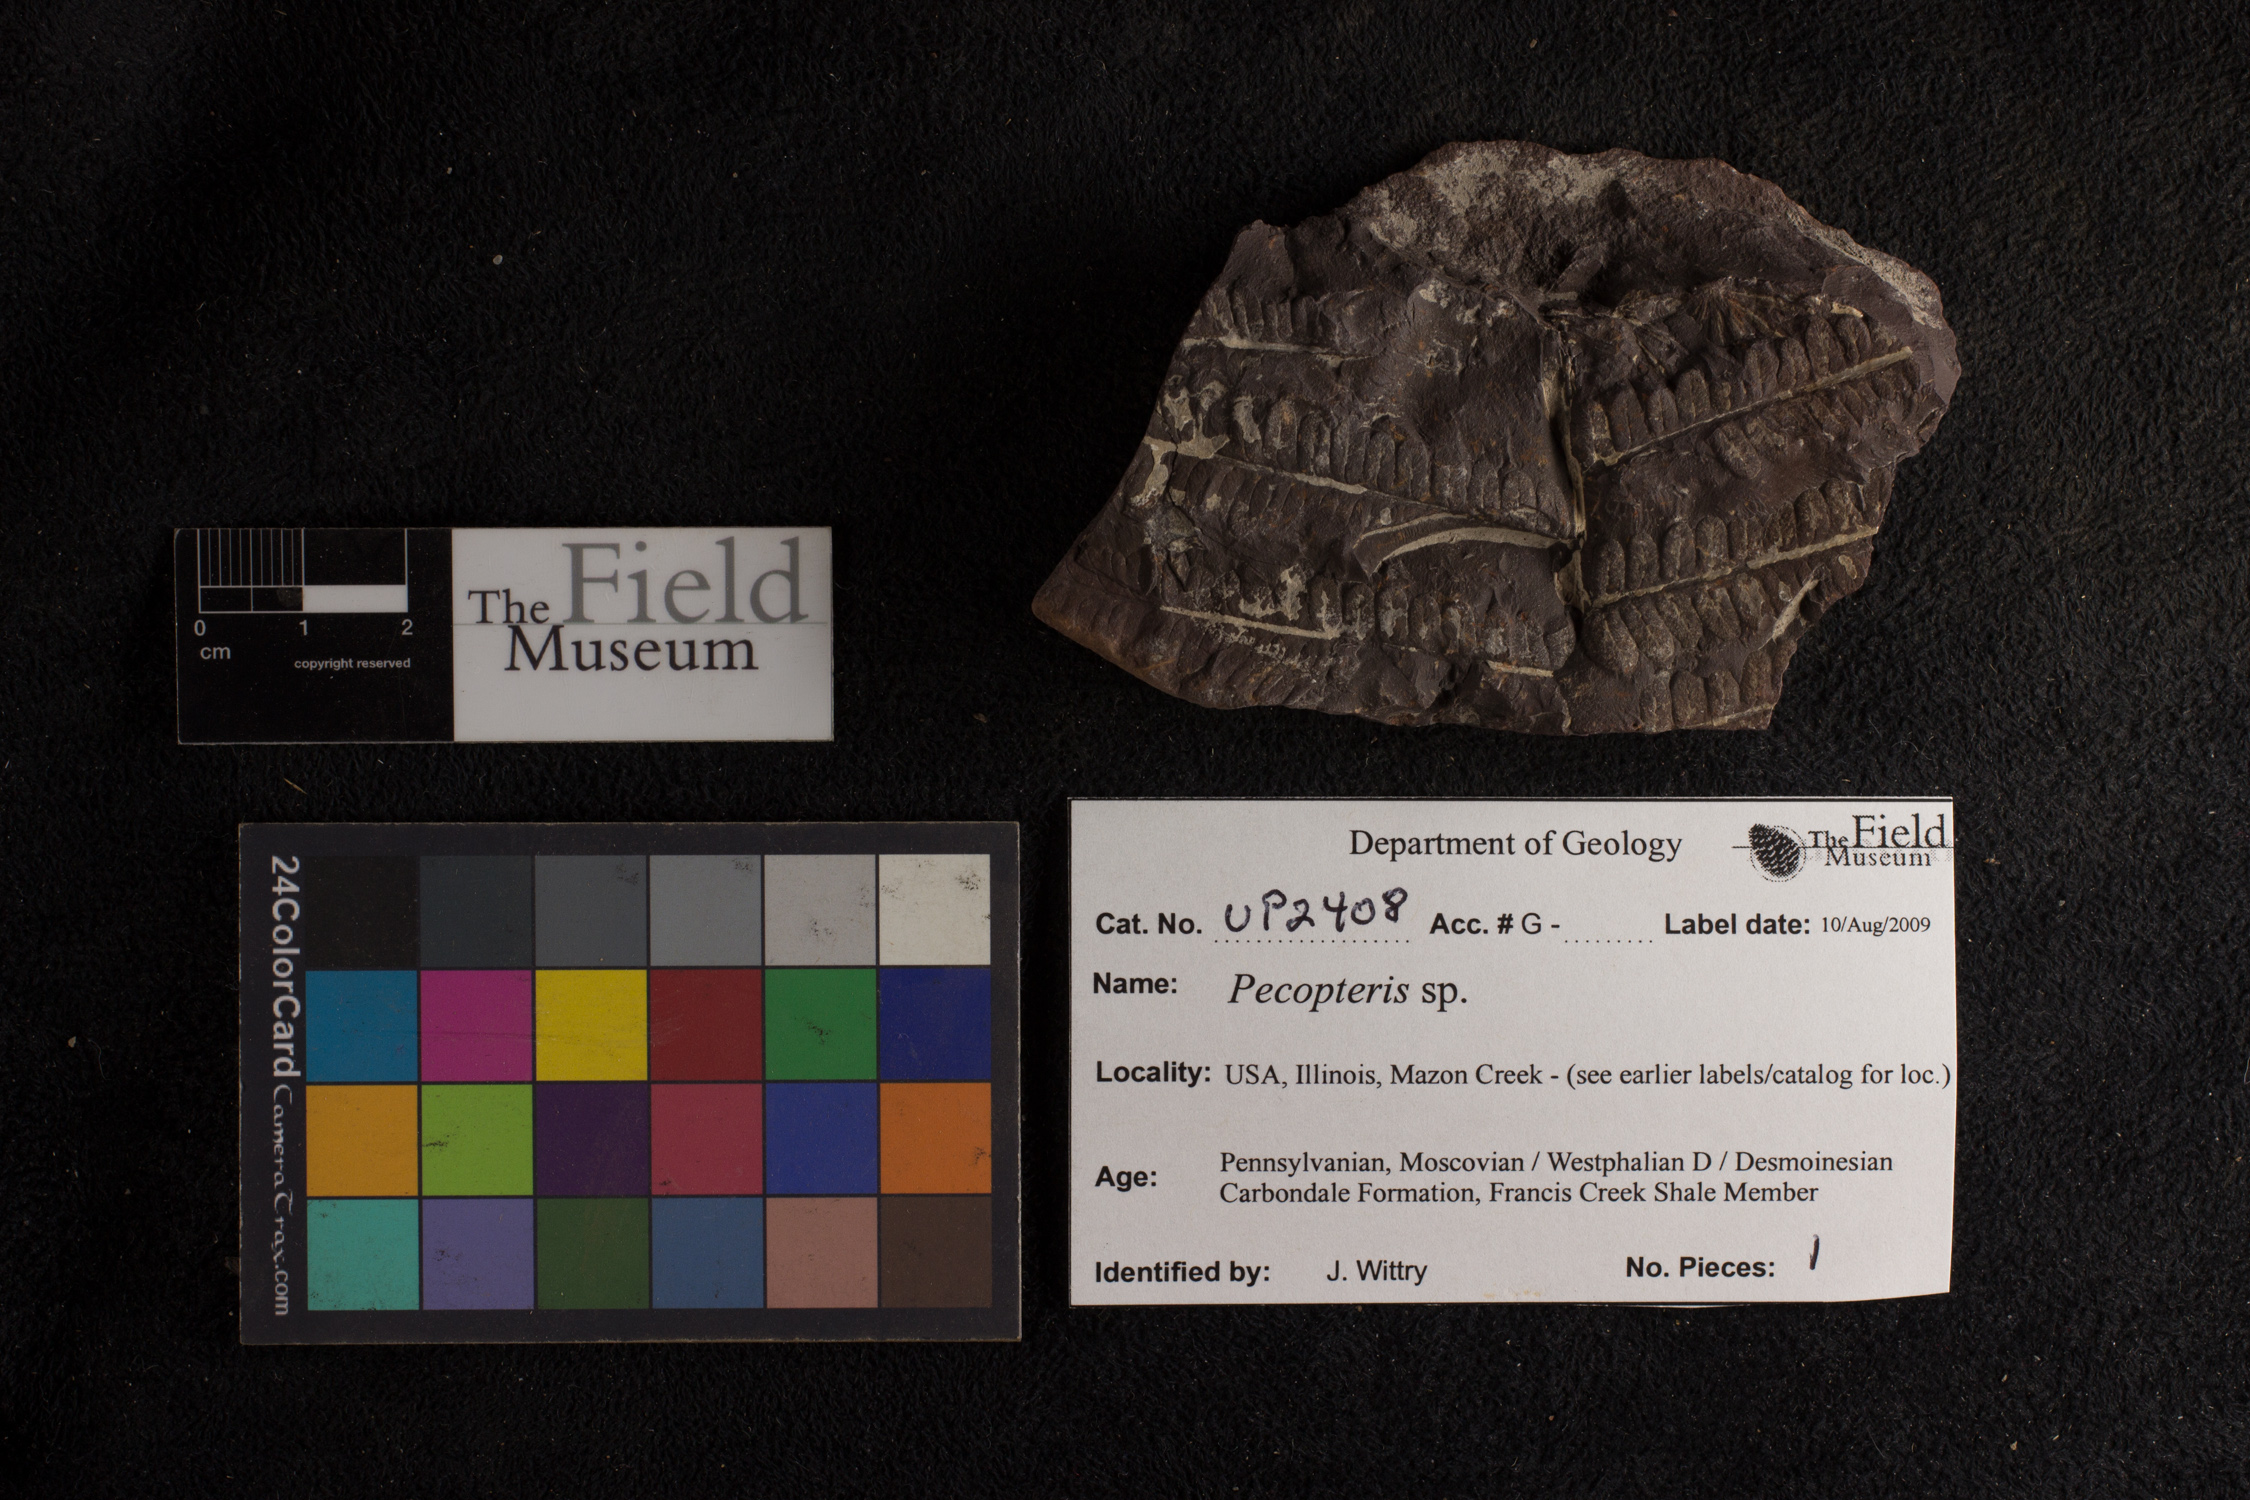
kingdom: Plantae
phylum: Tracheophyta
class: Polypodiopsida
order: Marattiales
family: Asterothecaceae
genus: Pecopteris
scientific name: Pecopteris
